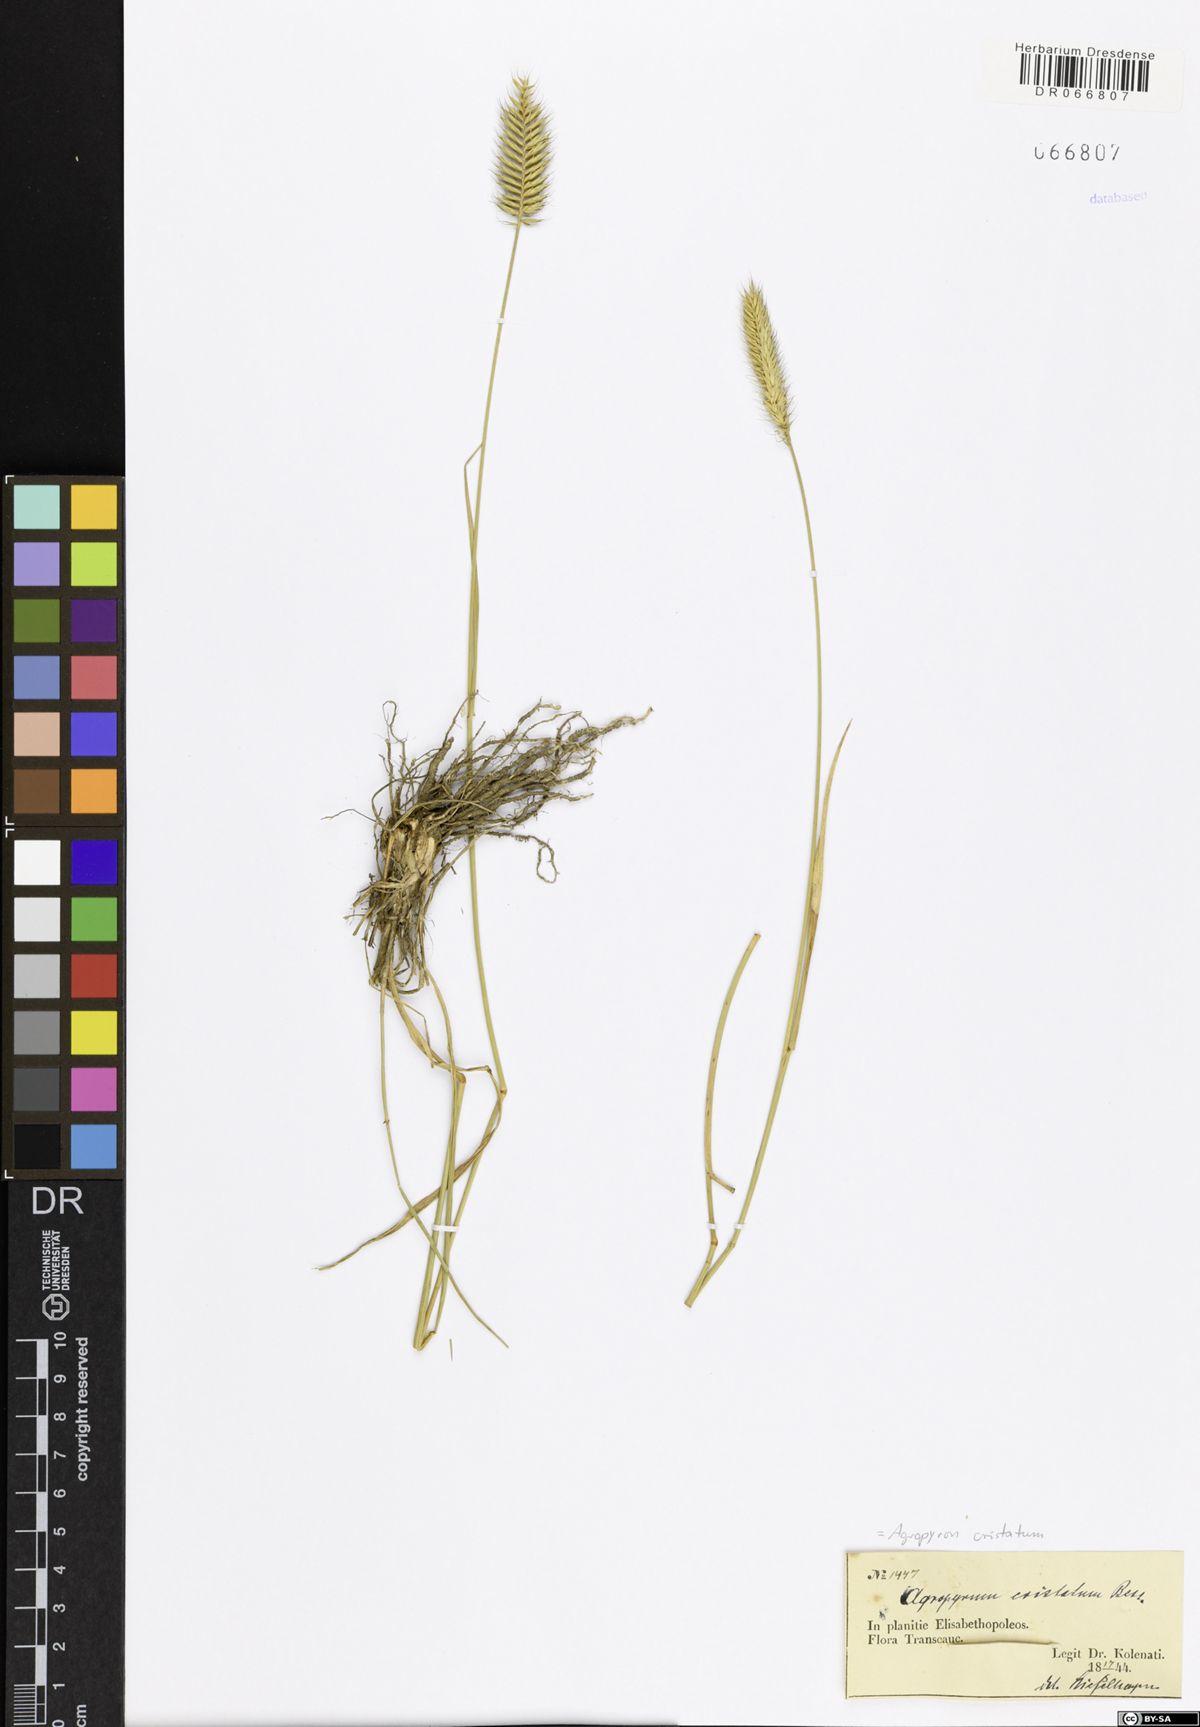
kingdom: Plantae
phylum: Tracheophyta
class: Liliopsida
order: Poales
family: Poaceae
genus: Agropyron
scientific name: Agropyron cristatum
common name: Crested wheatgrass
